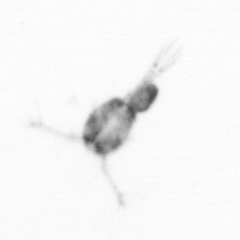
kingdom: Animalia
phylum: Arthropoda
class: Copepoda
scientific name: Copepoda
